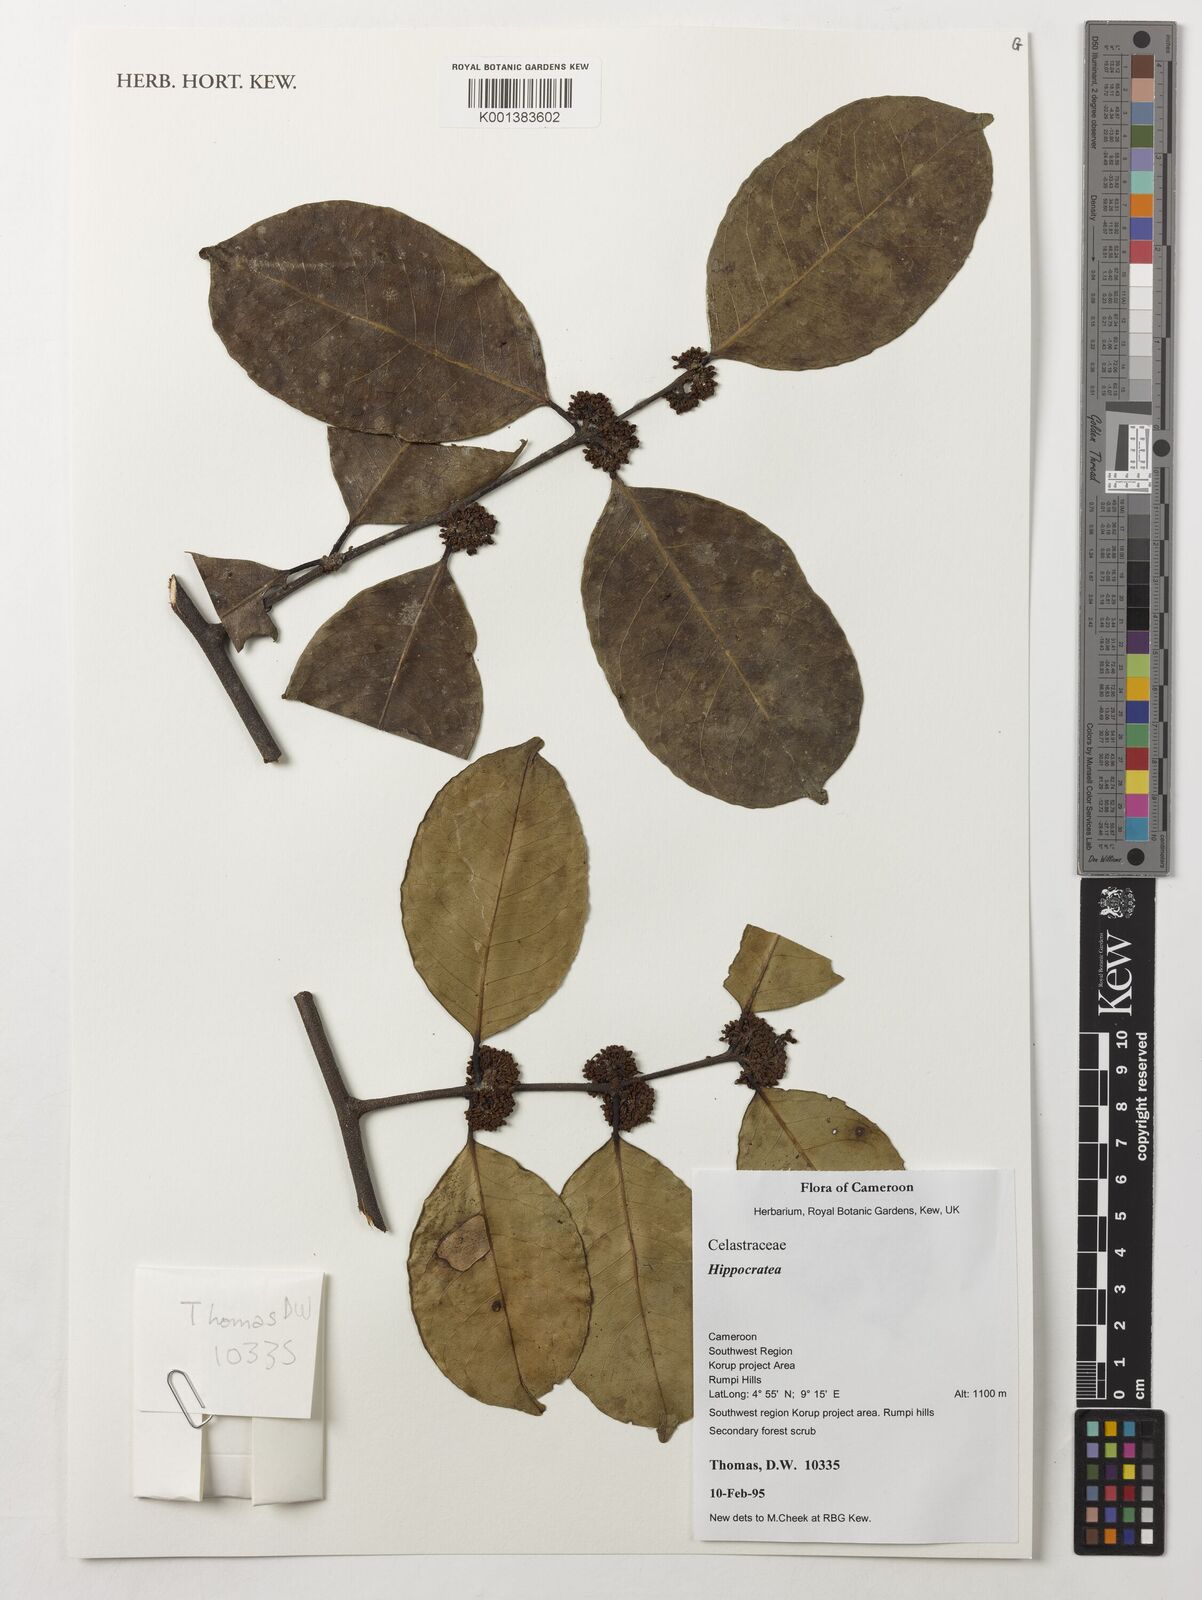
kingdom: Plantae
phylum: Tracheophyta
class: Magnoliopsida
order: Celastrales
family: Celastraceae
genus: Hippocratea
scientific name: Hippocratea
